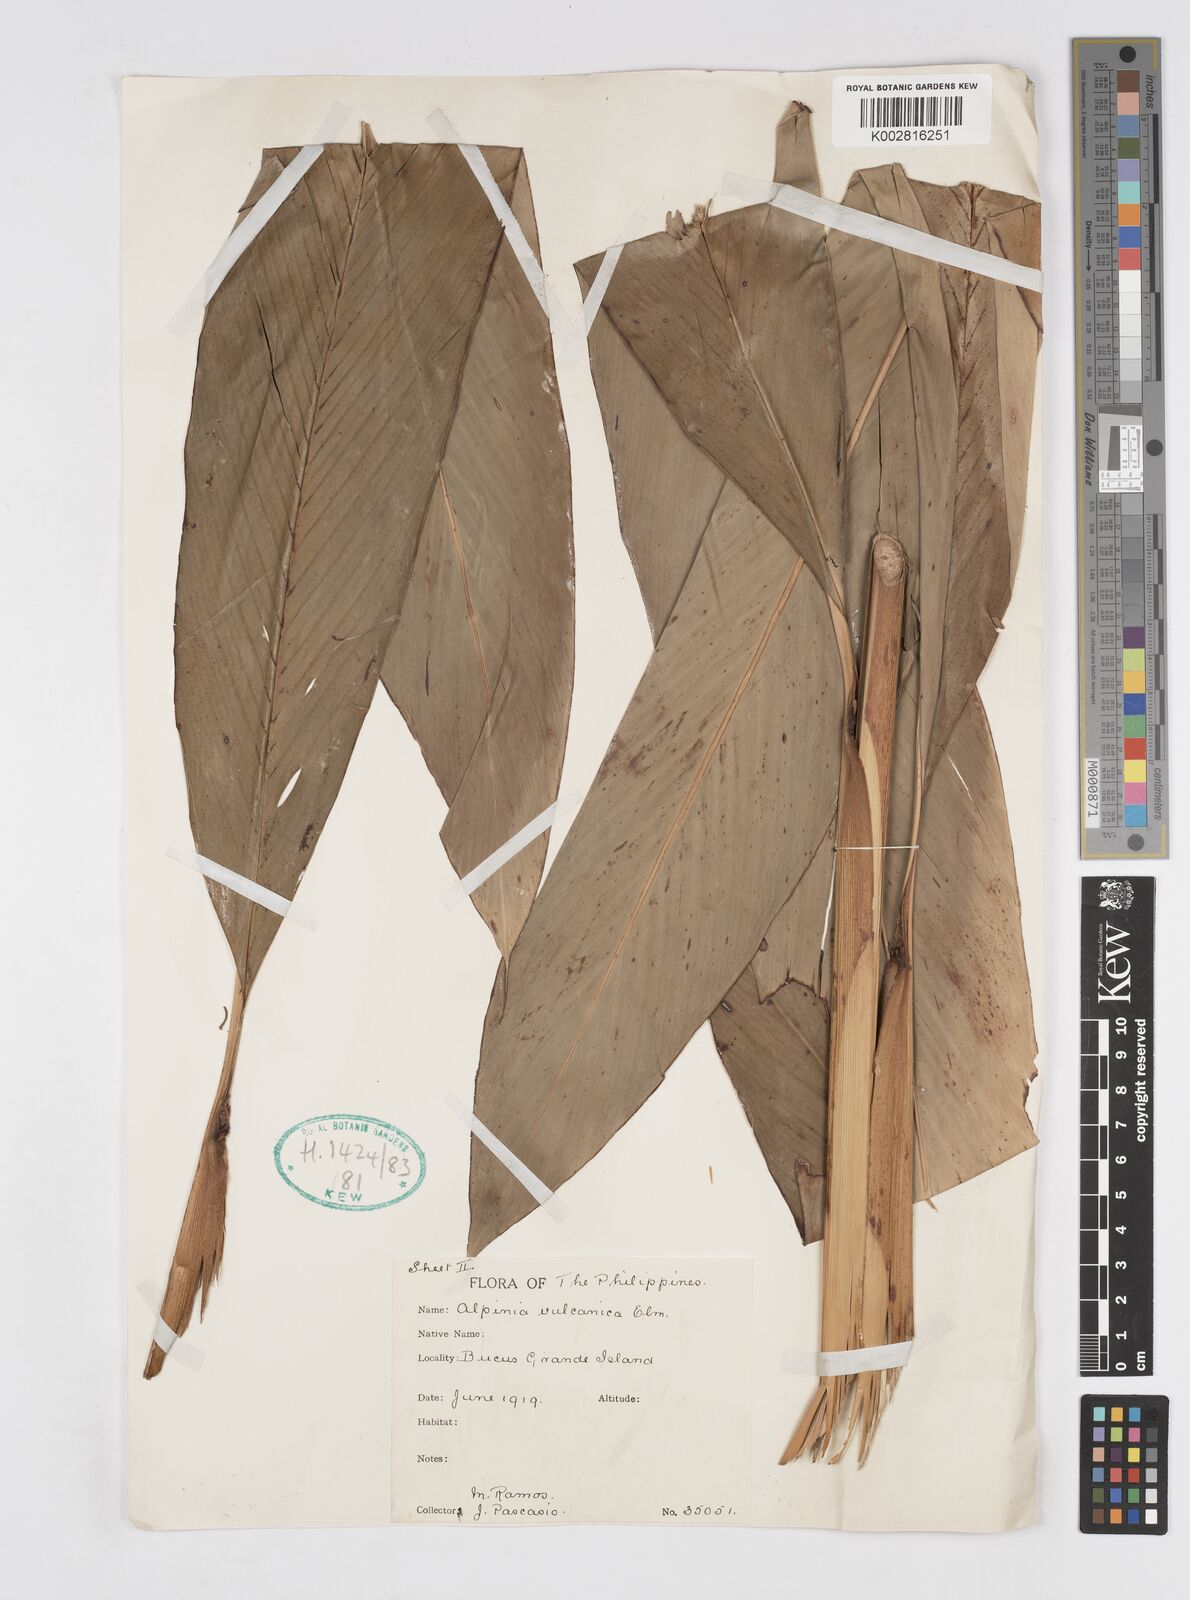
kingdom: Plantae
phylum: Tracheophyta
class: Liliopsida
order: Zingiberales
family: Zingiberaceae
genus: Alpinia
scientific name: Alpinia vulcanica
